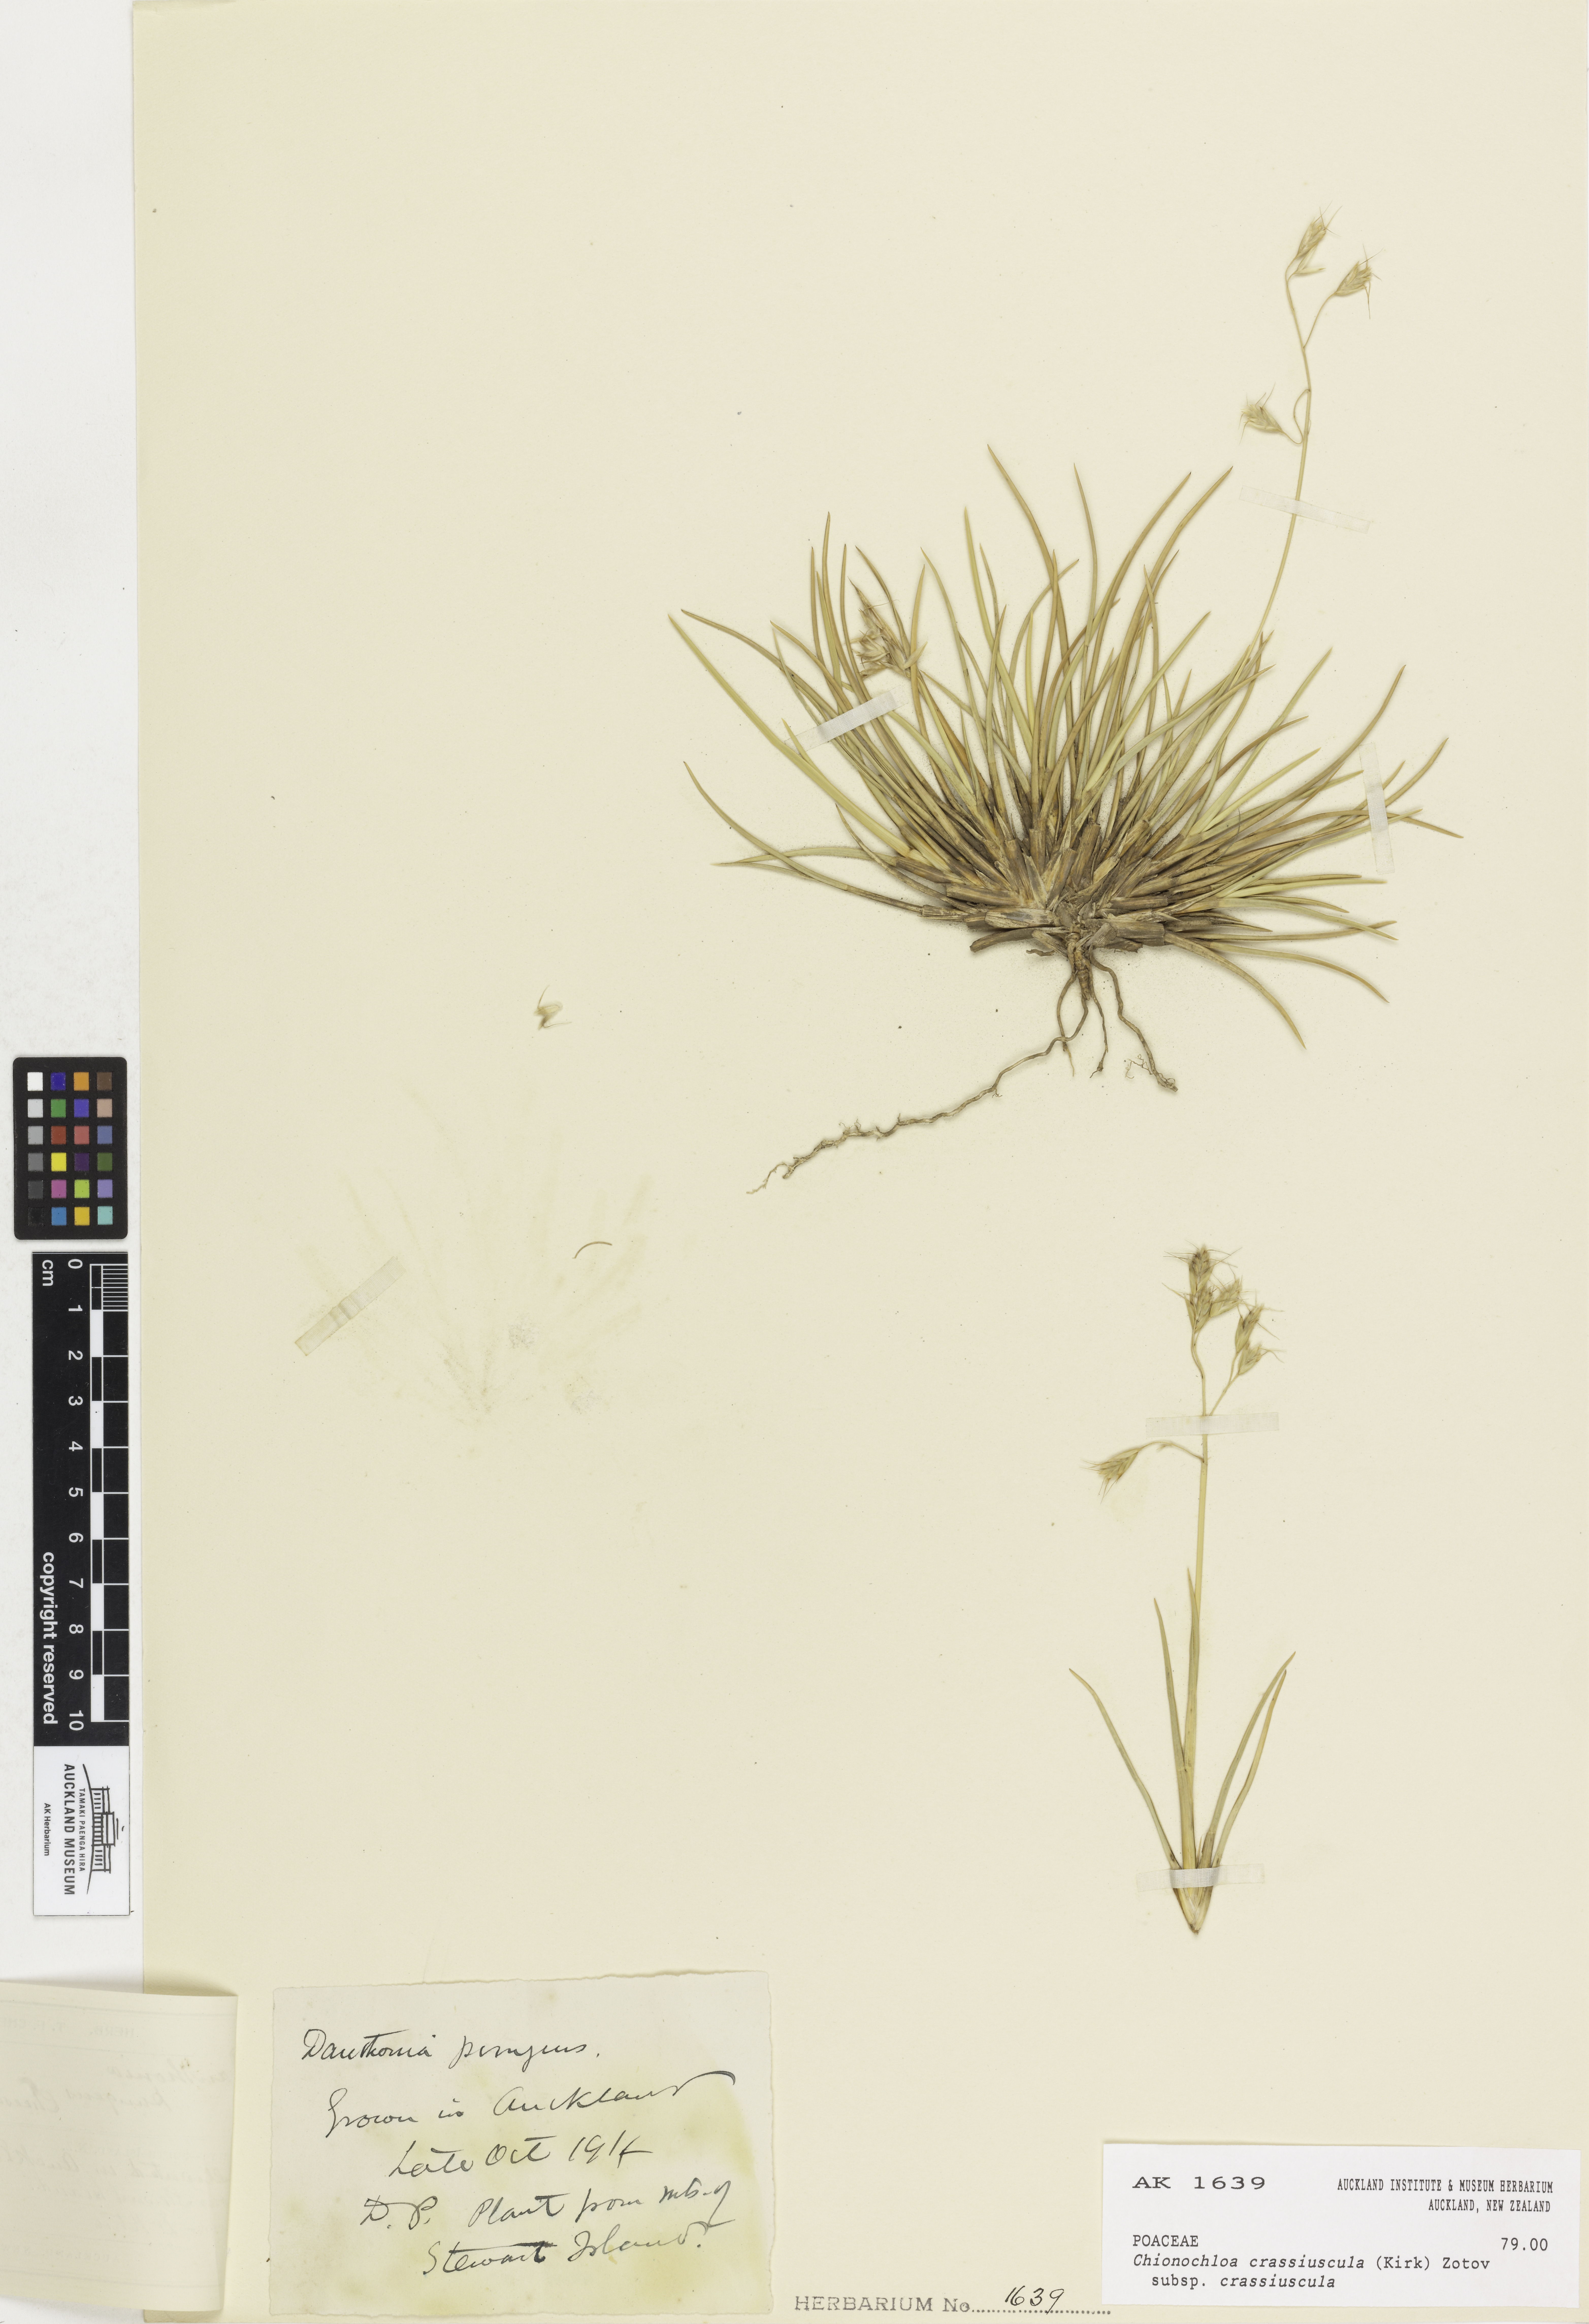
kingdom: Plantae
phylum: Tracheophyta
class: Liliopsida
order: Poales
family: Poaceae
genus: Chionochloa
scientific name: Chionochloa crassiuscula
